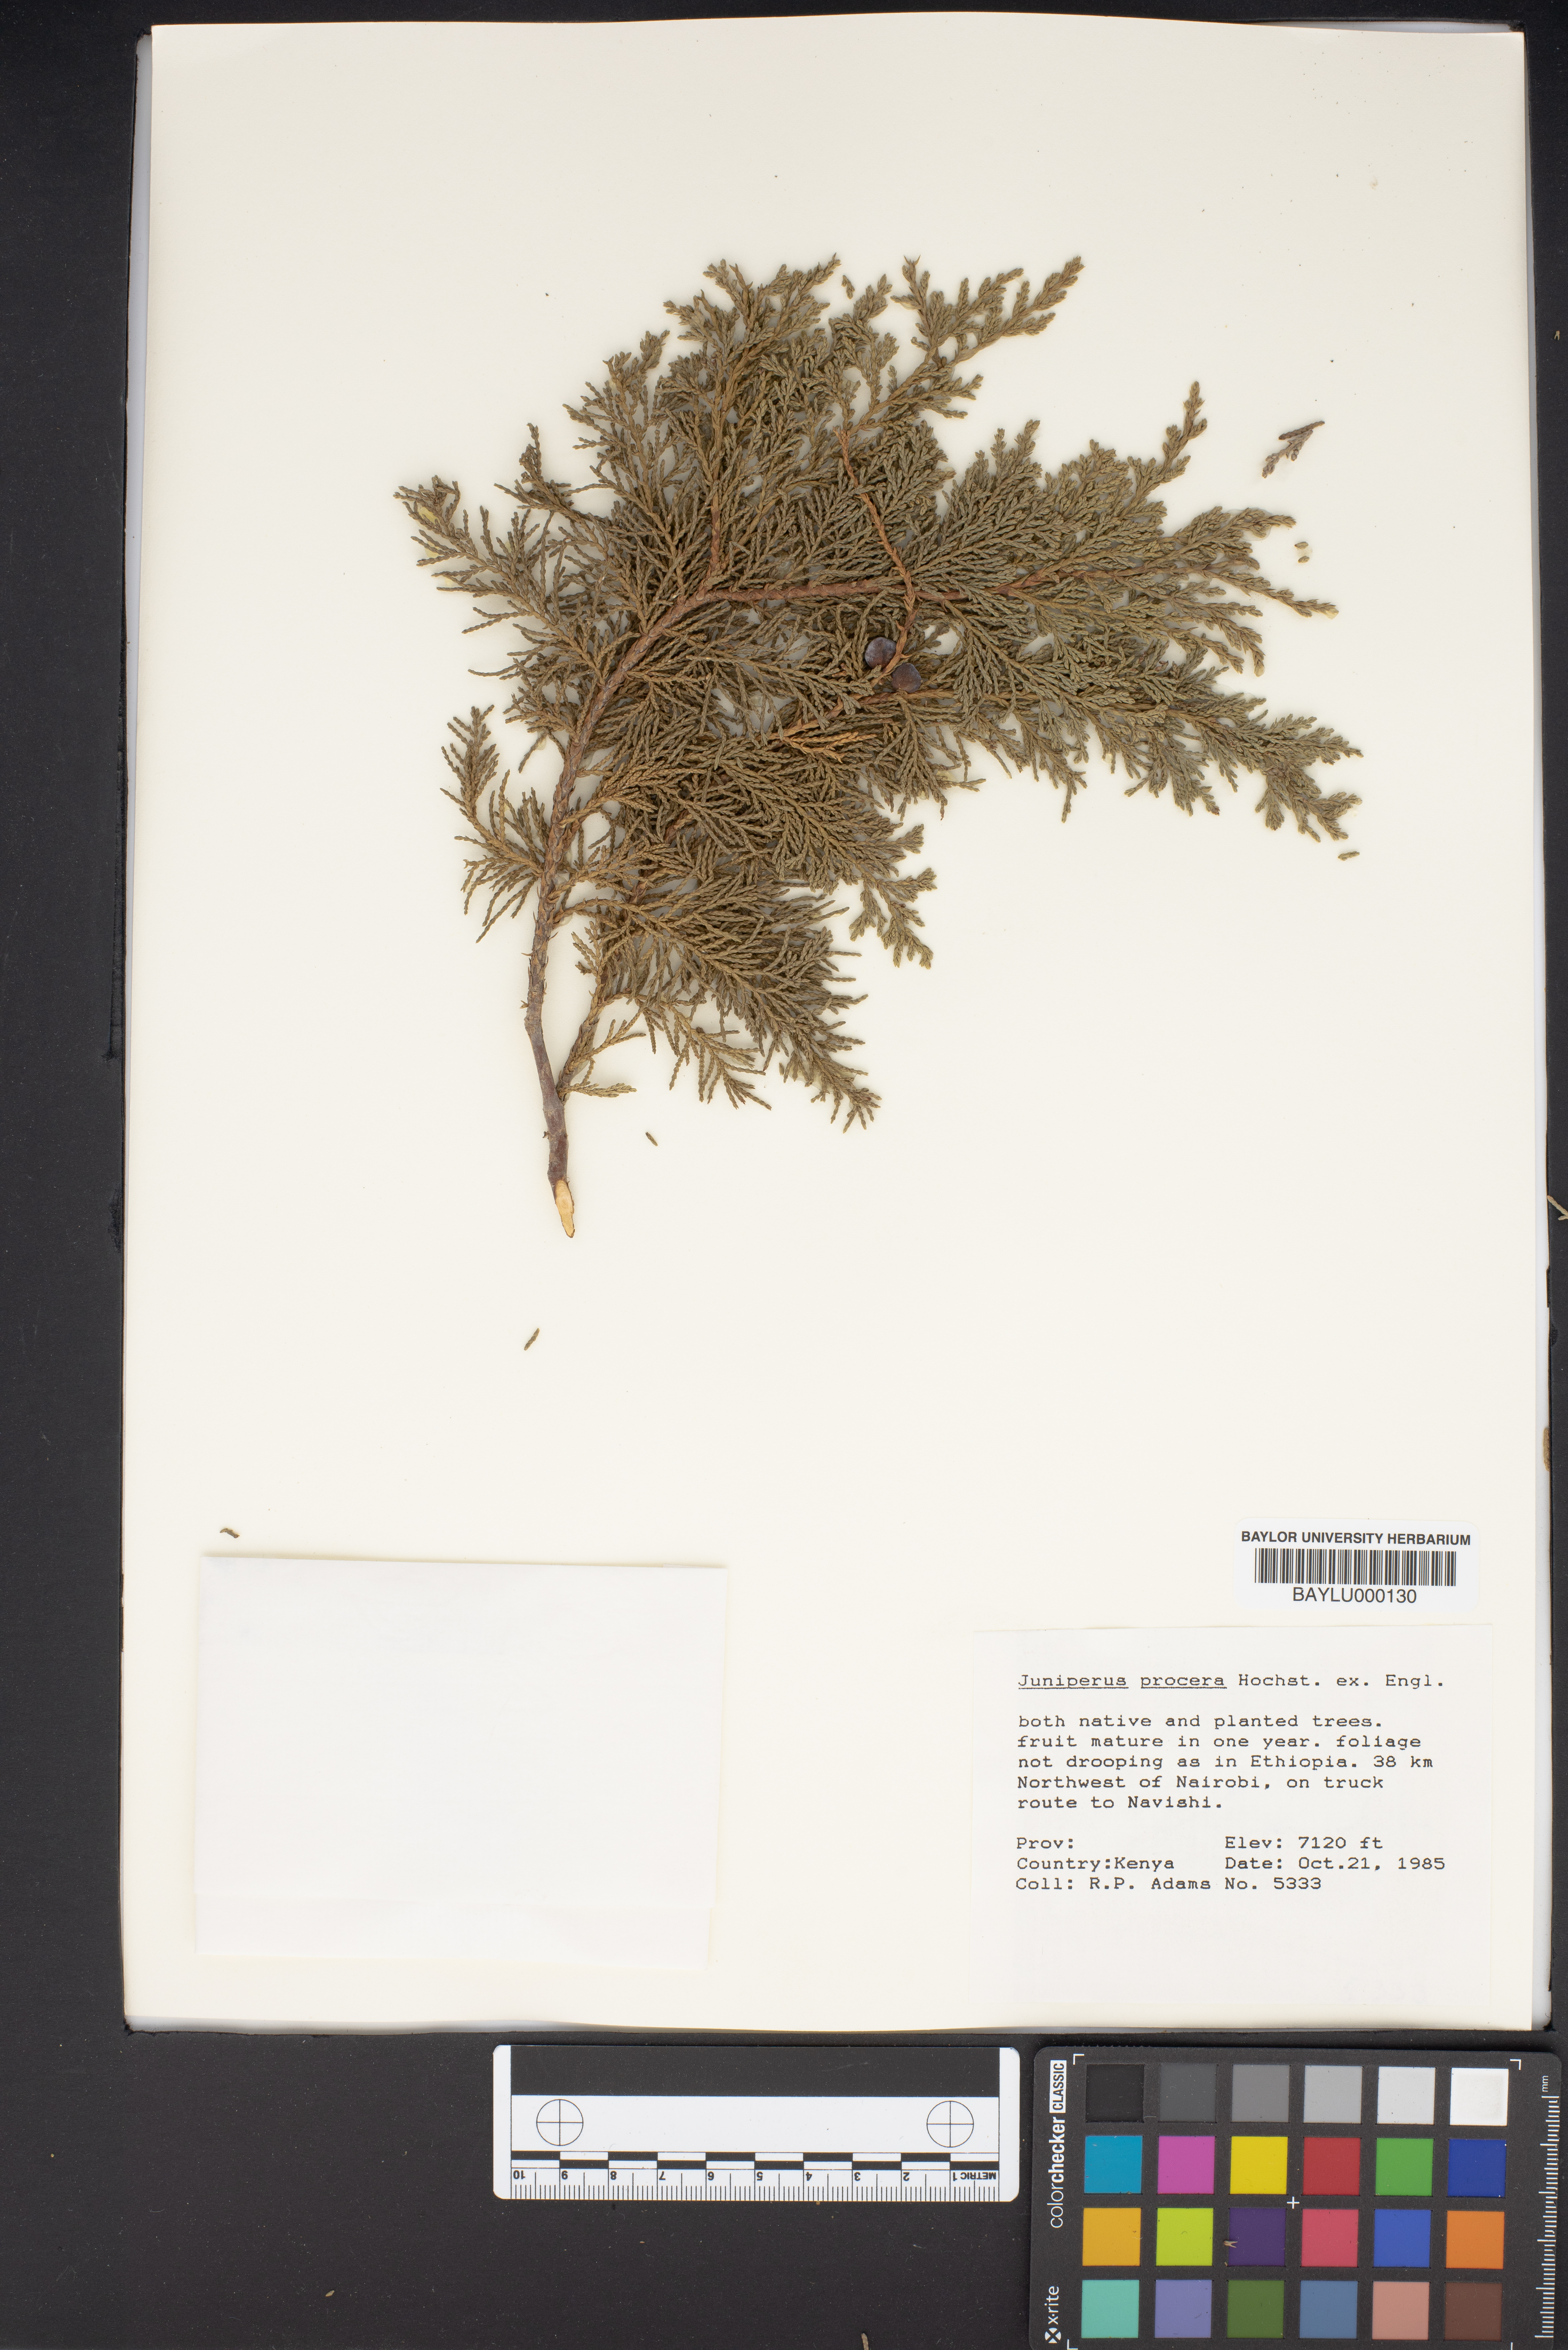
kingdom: Plantae
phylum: Tracheophyta
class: Pinopsida
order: Pinales
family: Cupressaceae
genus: Juniperus
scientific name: Juniperus procera
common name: African juniper
